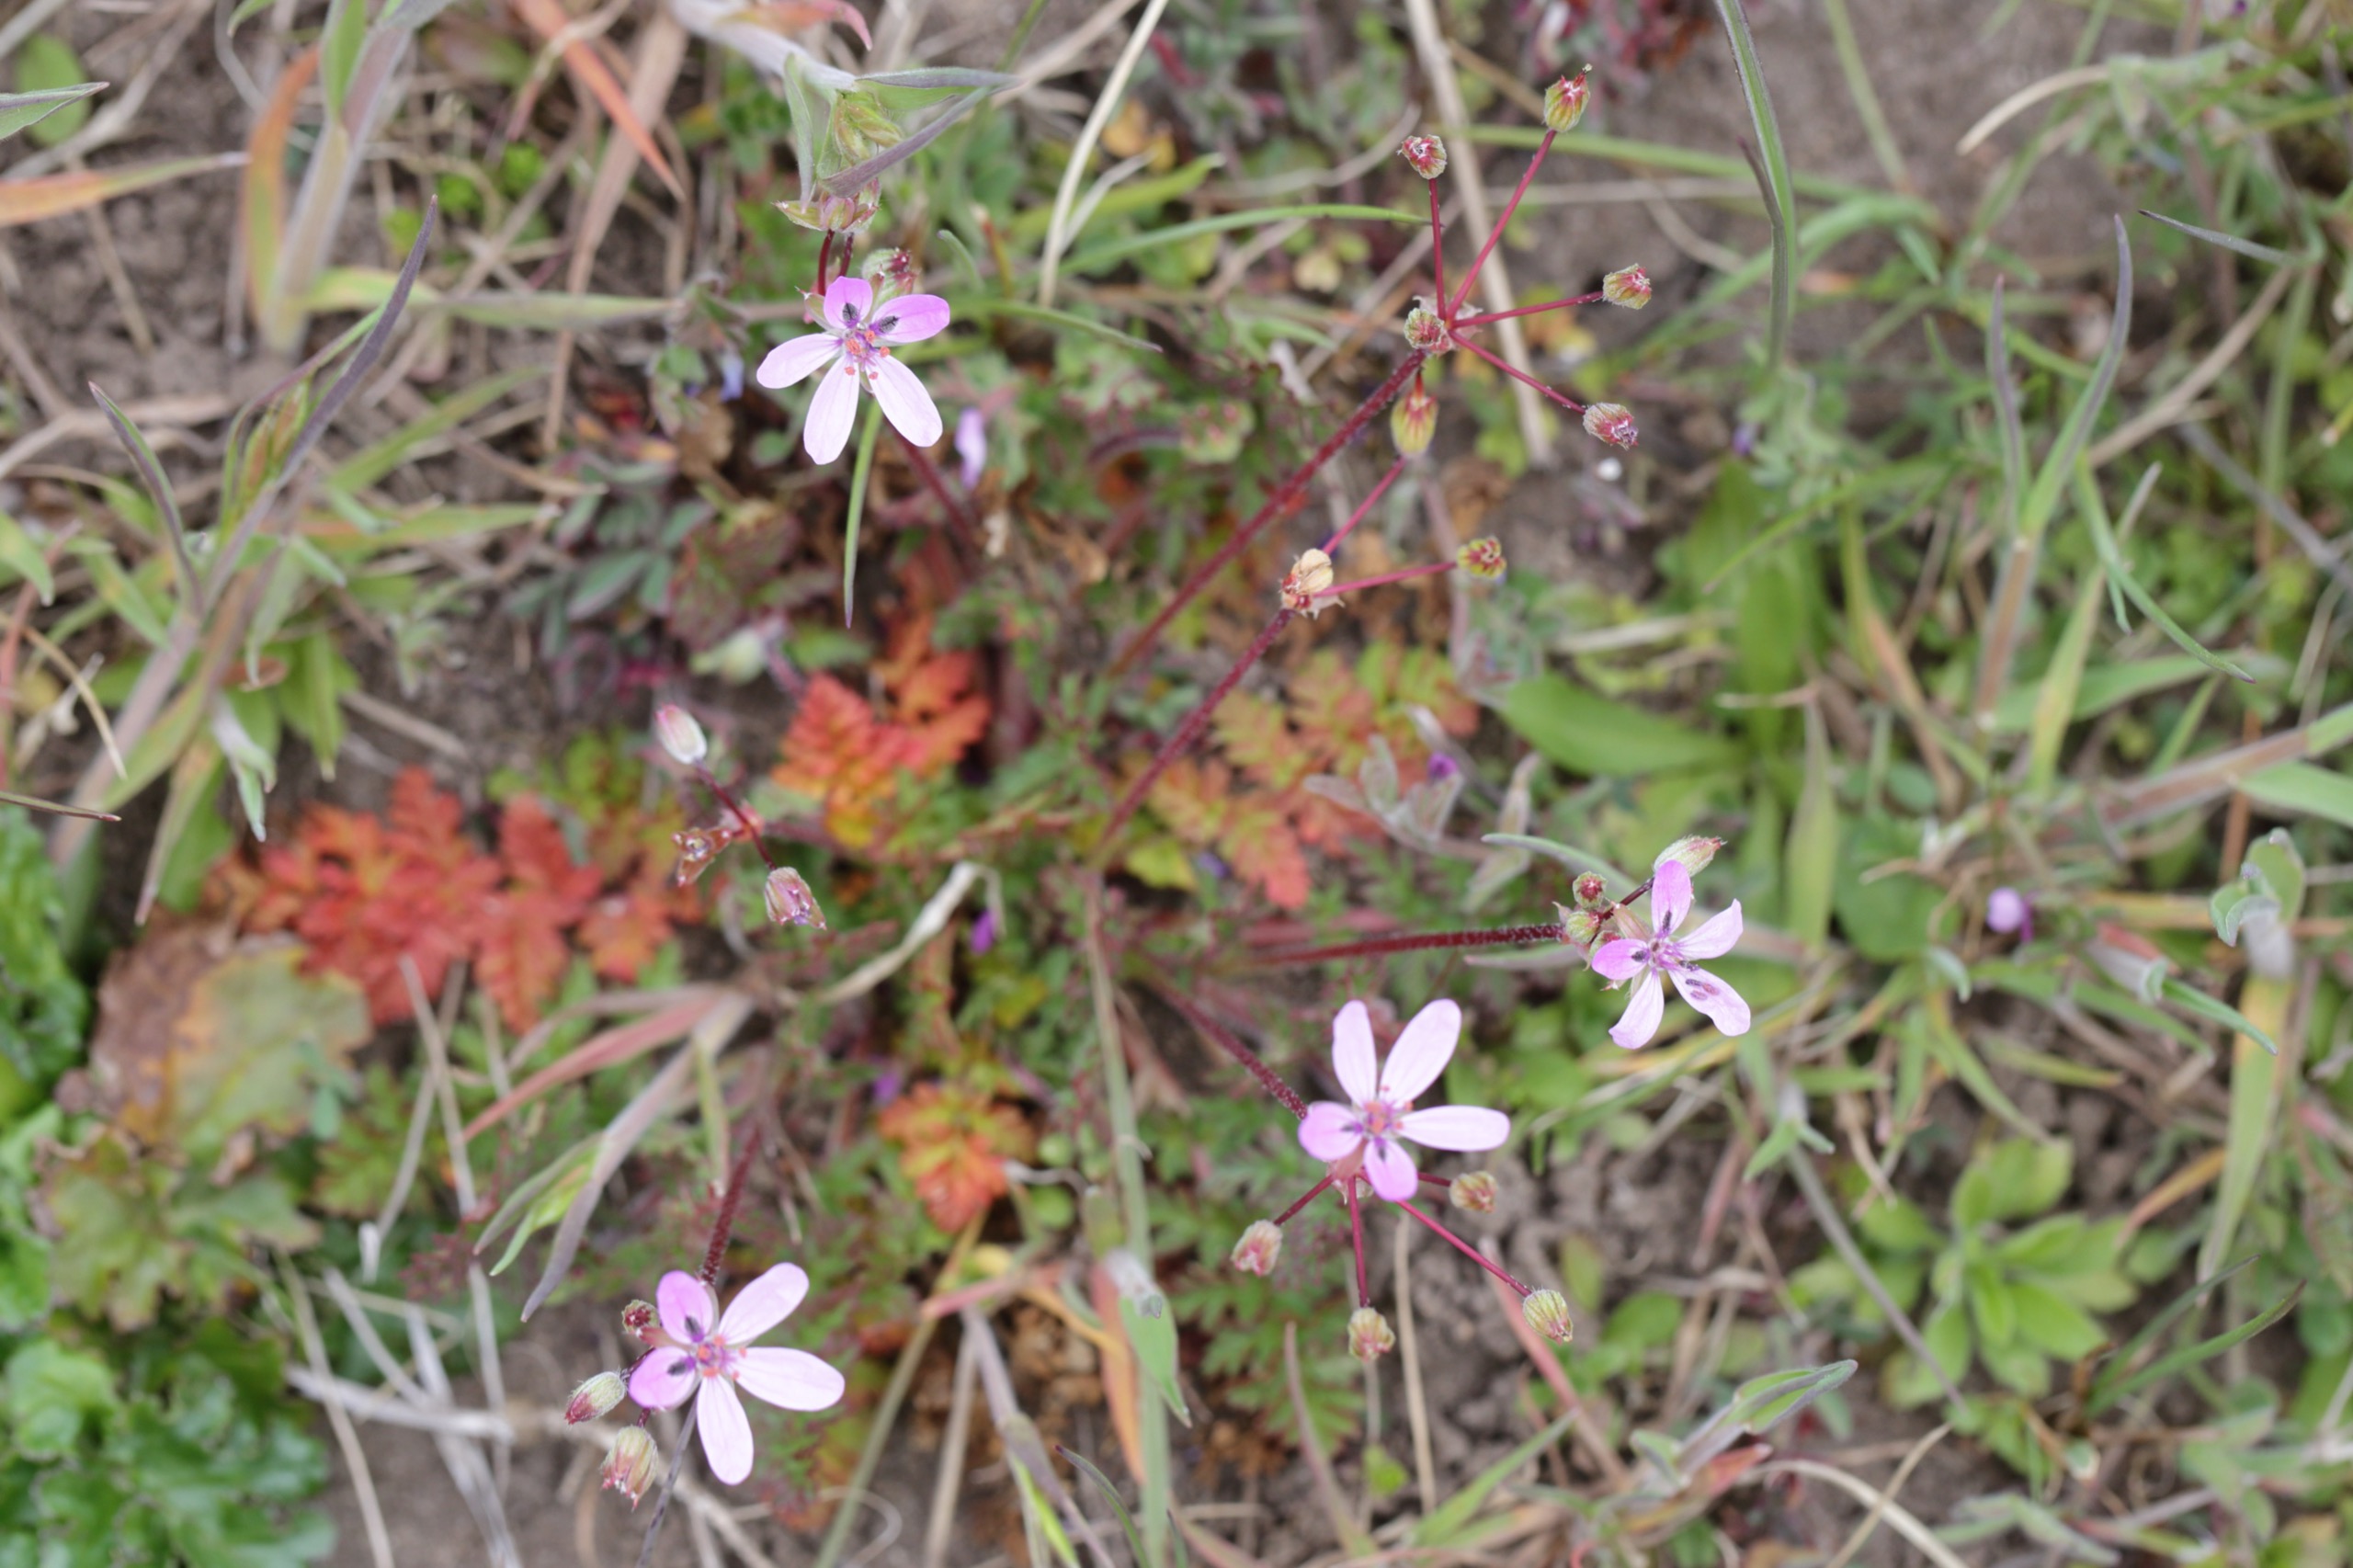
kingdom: Plantae
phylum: Tracheophyta
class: Magnoliopsida
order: Geraniales
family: Geraniaceae
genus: Erodium
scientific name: Erodium cicutarium
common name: Hejrenæb
